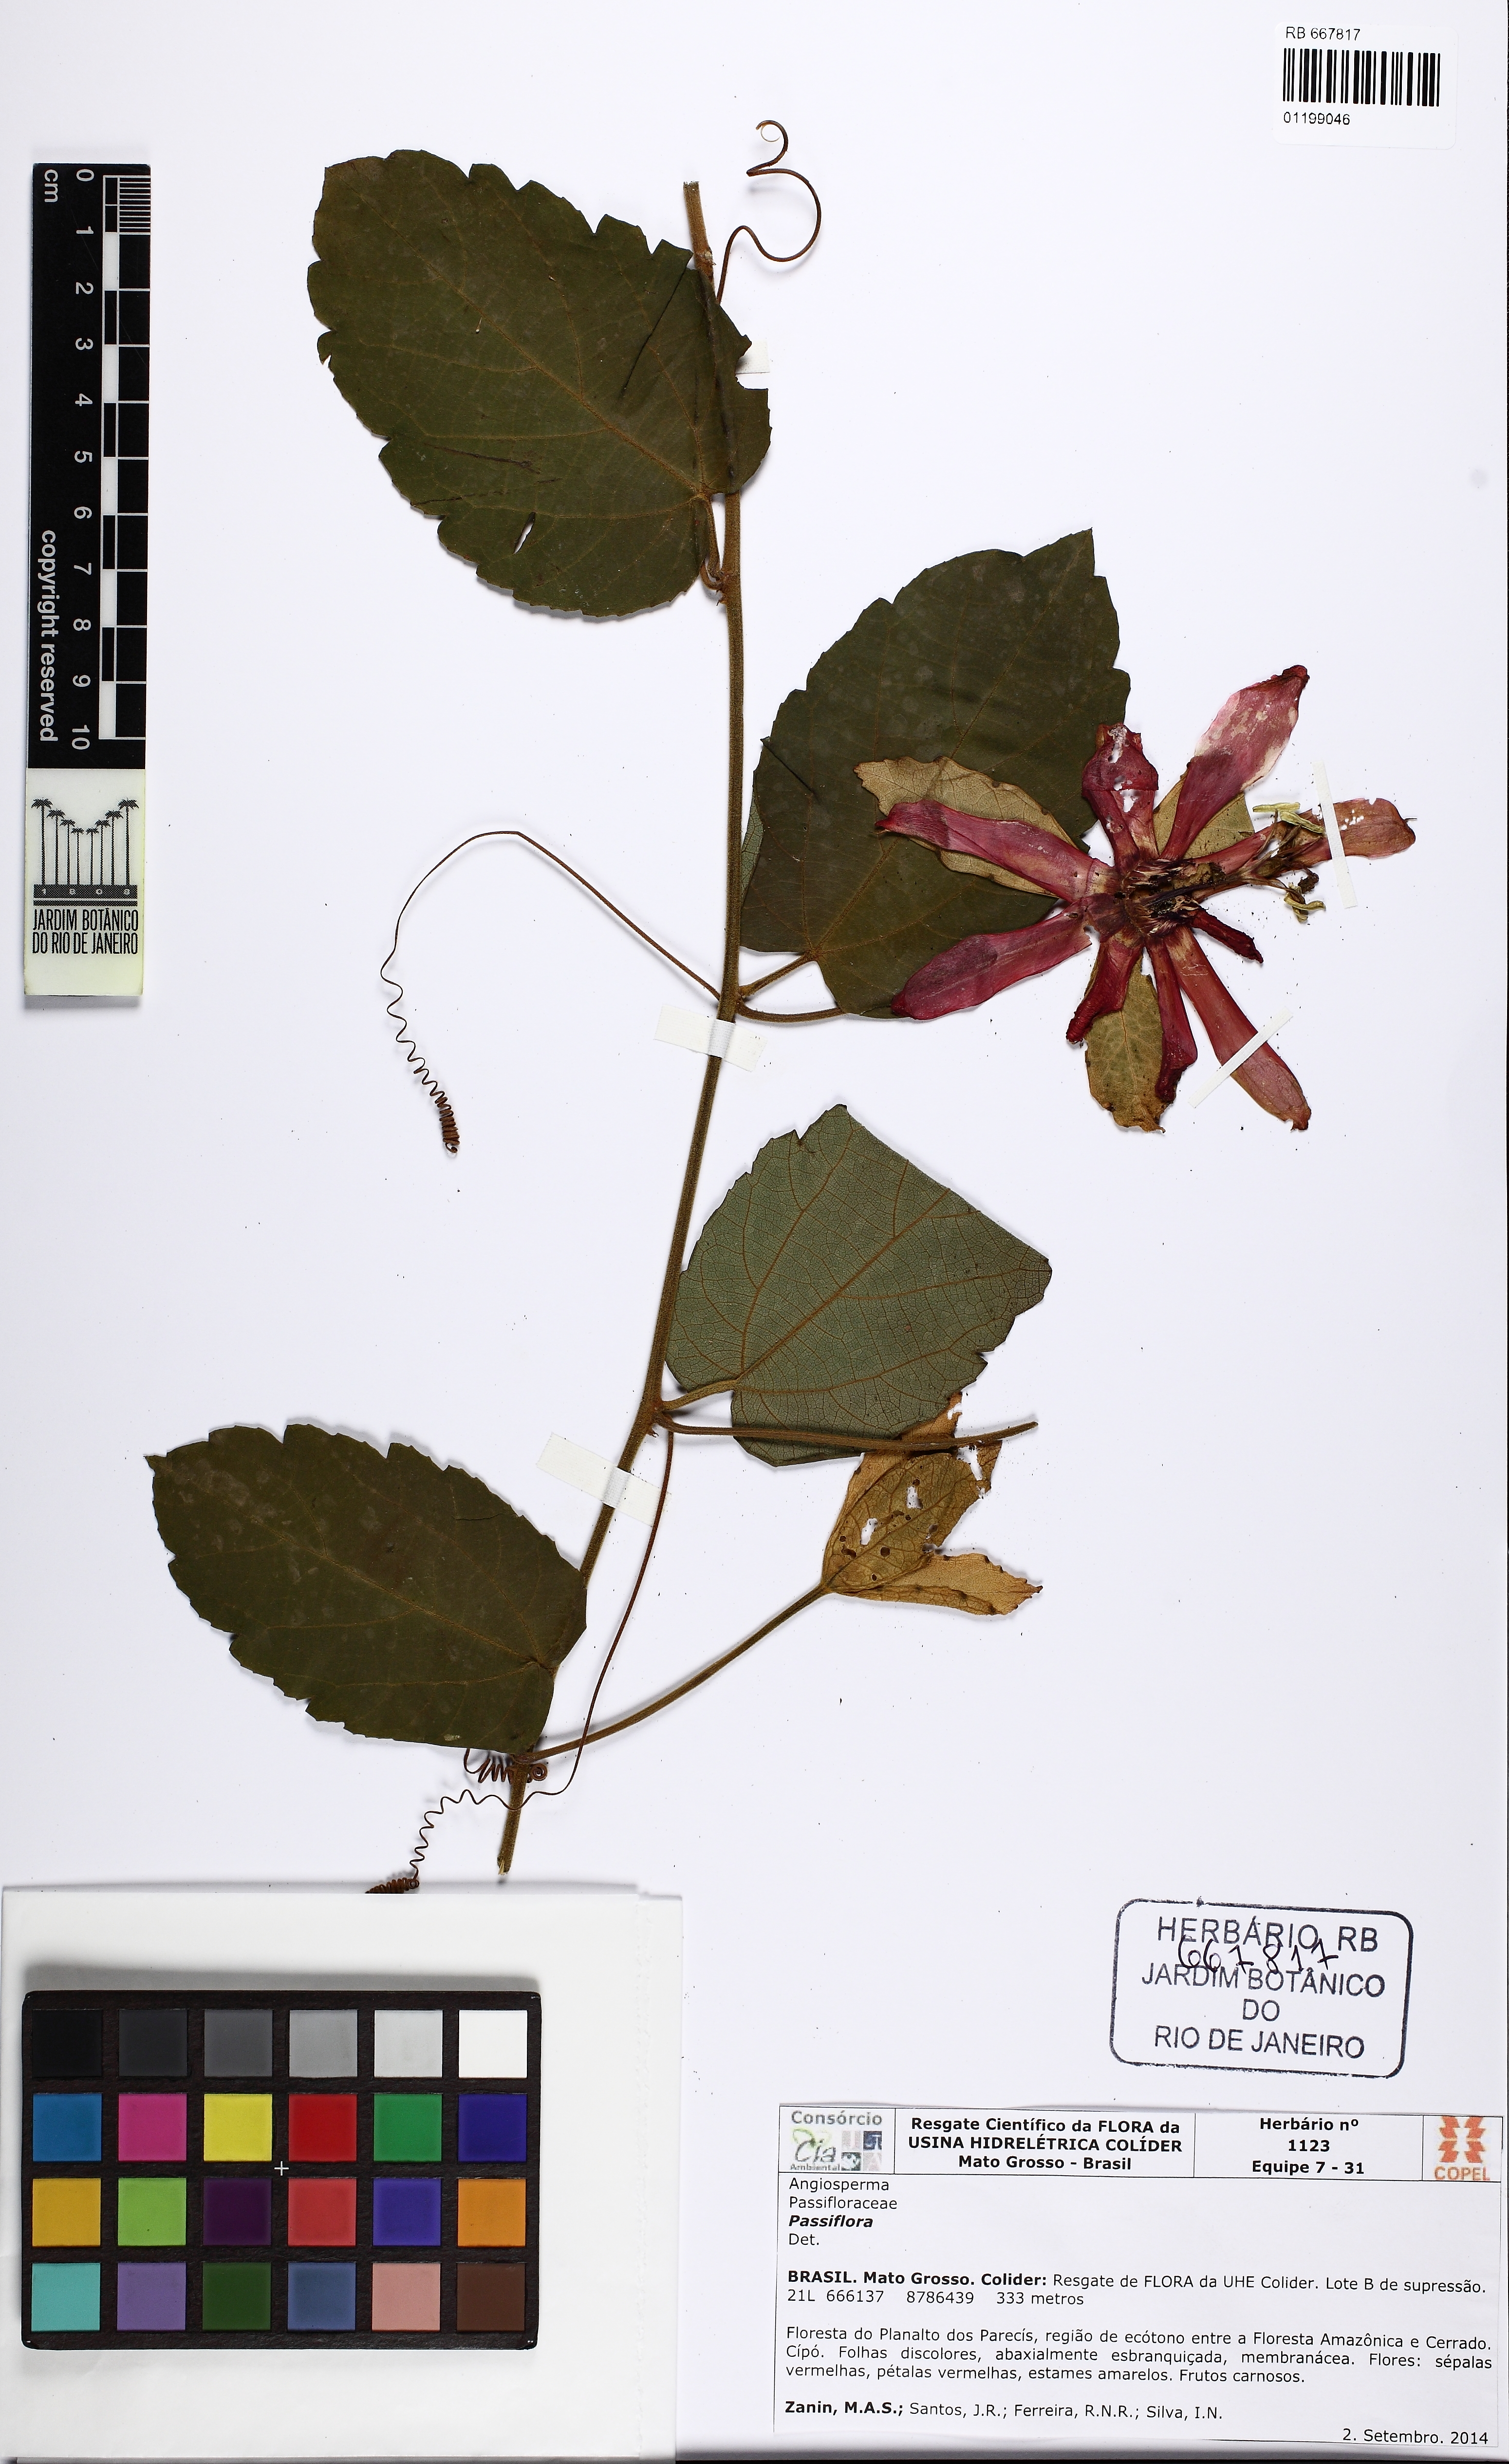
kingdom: Plantae
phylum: Tracheophyta
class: Magnoliopsida
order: Malpighiales
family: Passifloraceae
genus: Passiflora
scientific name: Passiflora araujoi
